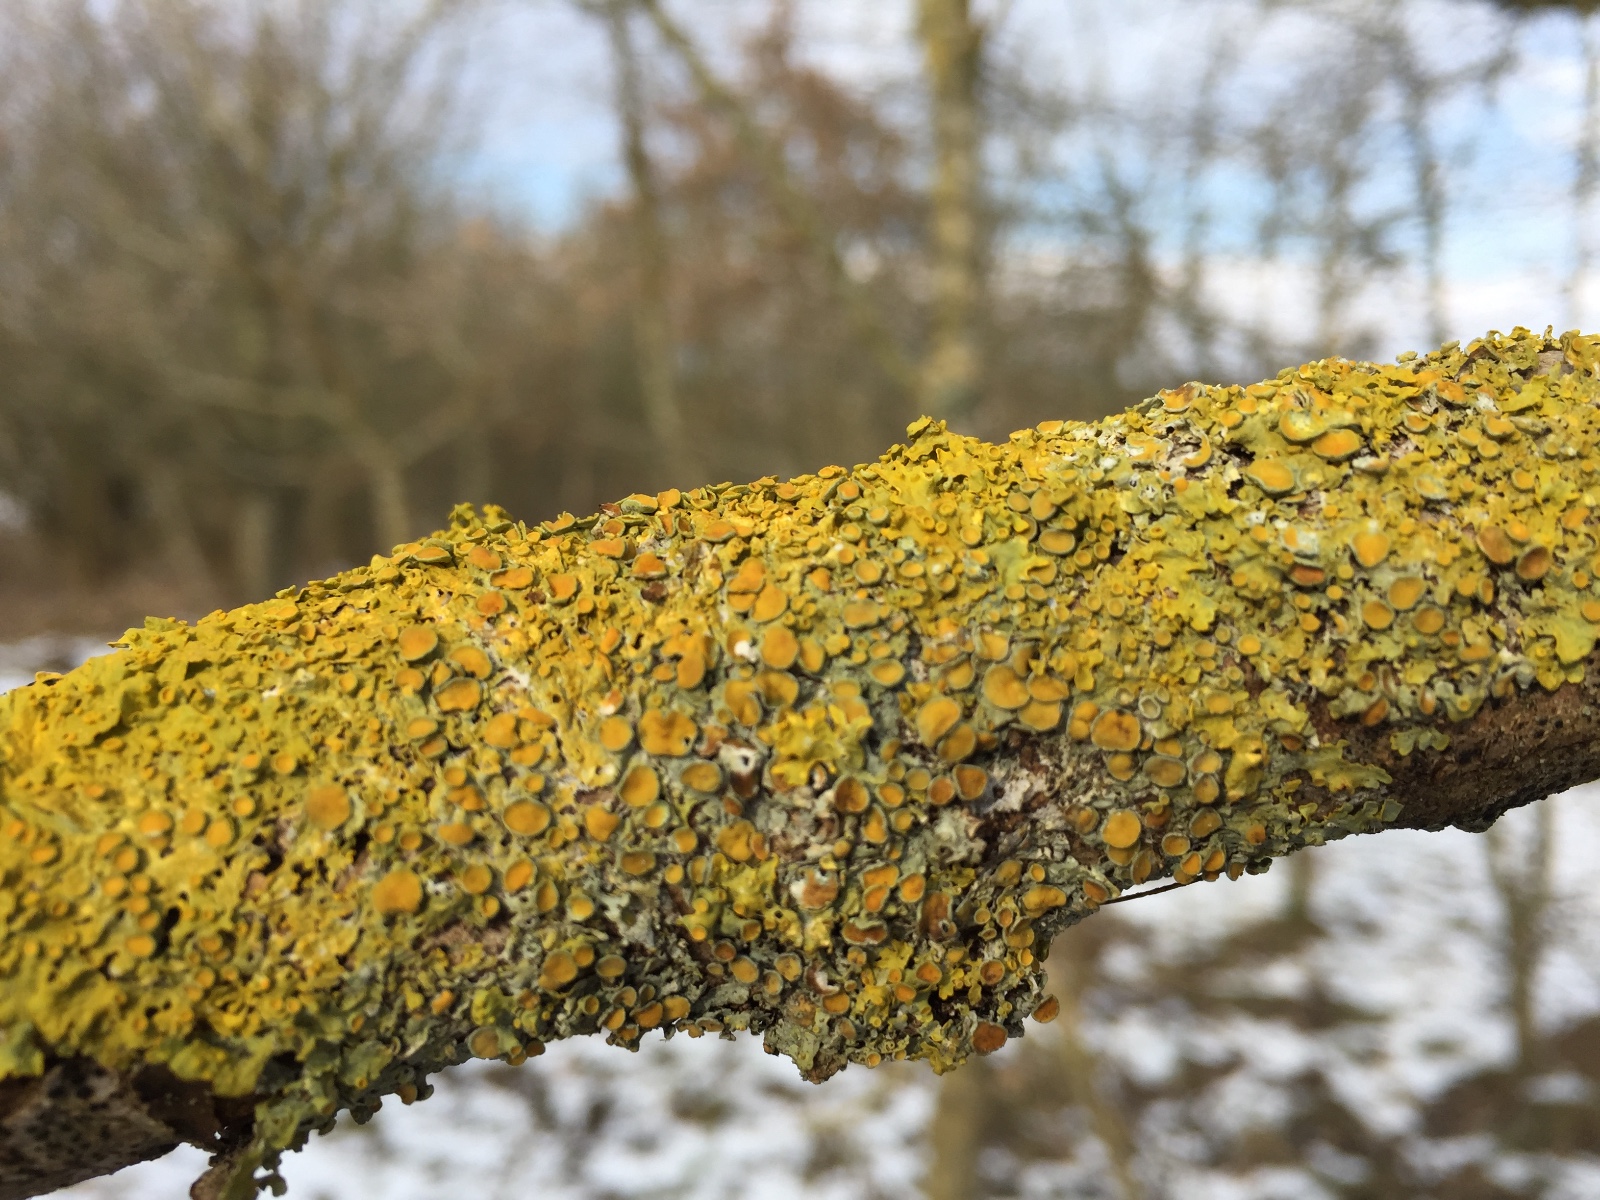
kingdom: Fungi
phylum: Ascomycota
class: Lecanoromycetes
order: Teloschistales
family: Teloschistaceae
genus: Xanthoria
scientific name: Xanthoria parietina
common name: almindelig væggelav
